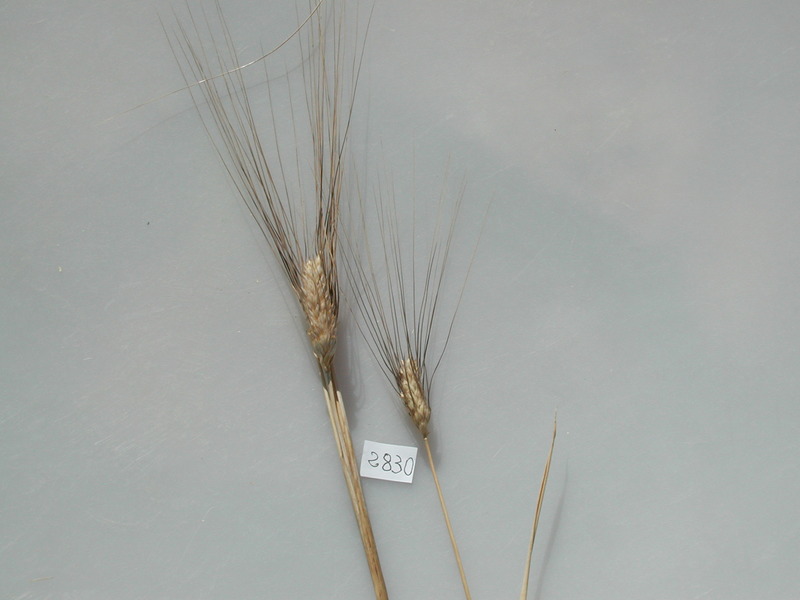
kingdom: Plantae
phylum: Tracheophyta
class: Liliopsida
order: Poales
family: Poaceae
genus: Triticum
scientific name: Triticum turgidum
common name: Wheat
